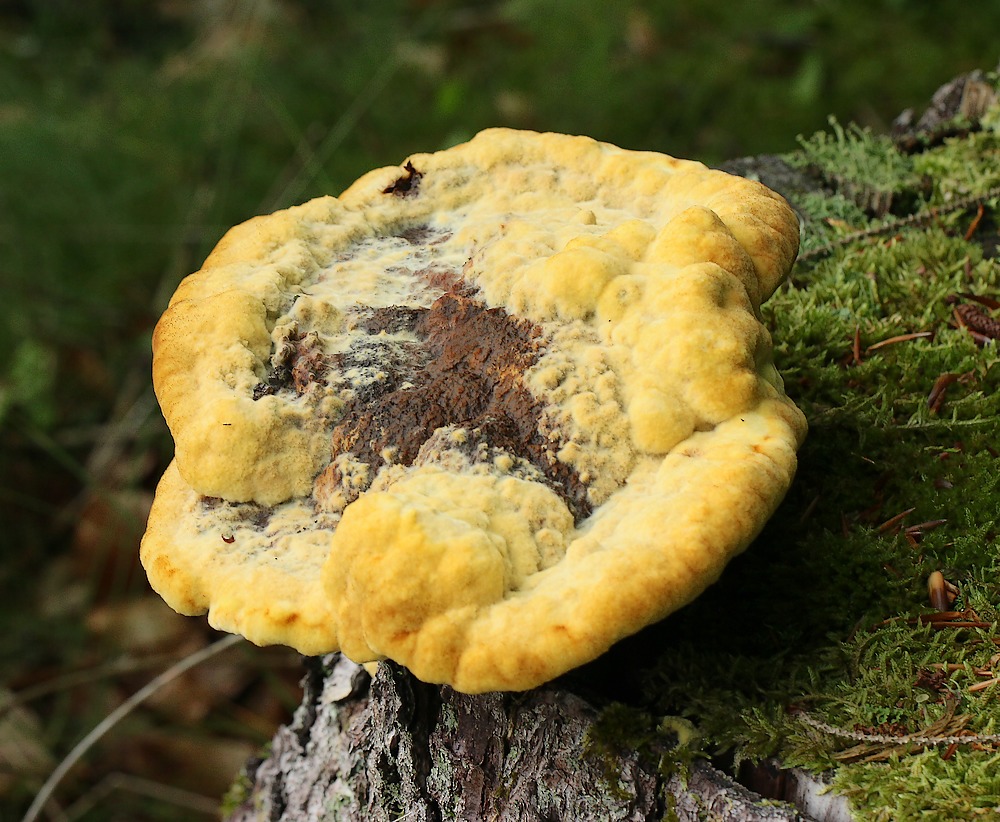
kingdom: Fungi
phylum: Basidiomycota
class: Agaricomycetes
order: Polyporales
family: Laetiporaceae
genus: Phaeolus
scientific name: Phaeolus schweinitzii
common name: brunporesvamp
